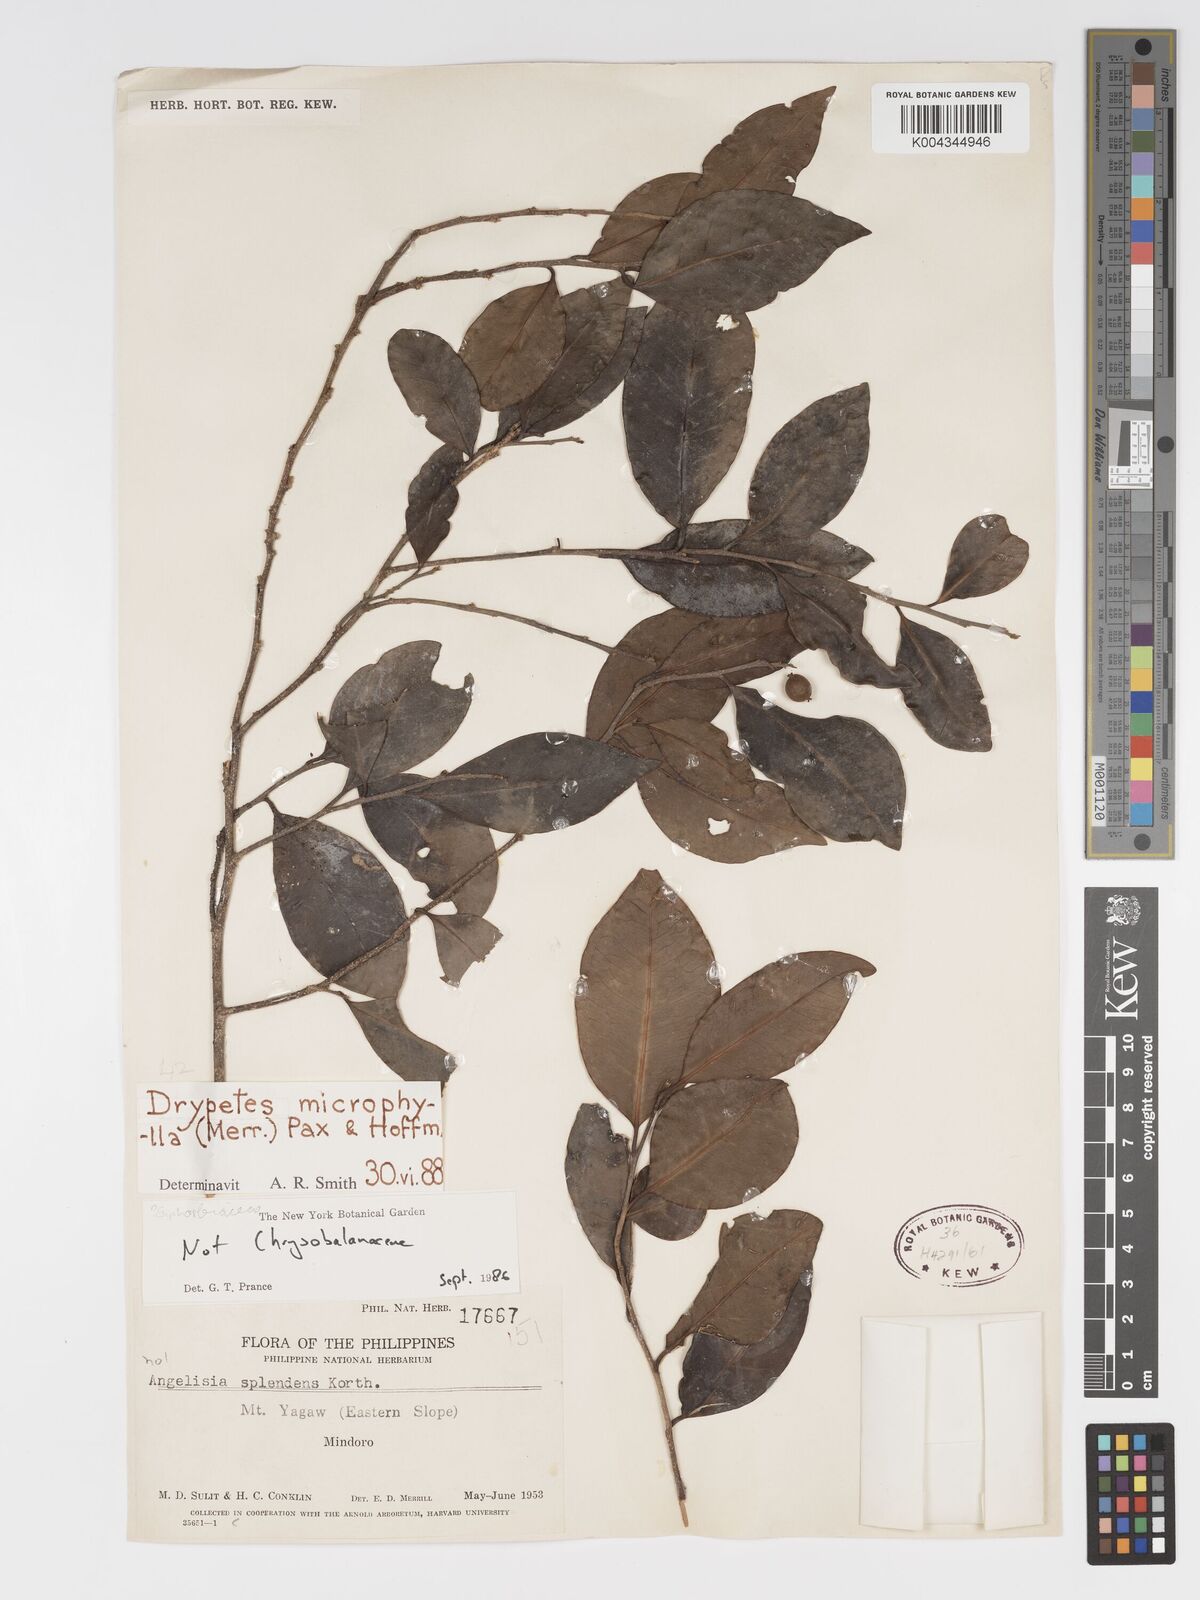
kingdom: Plantae
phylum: Tracheophyta
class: Magnoliopsida
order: Malpighiales
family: Putranjivaceae
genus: Drypetes
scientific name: Drypetes microphylla
